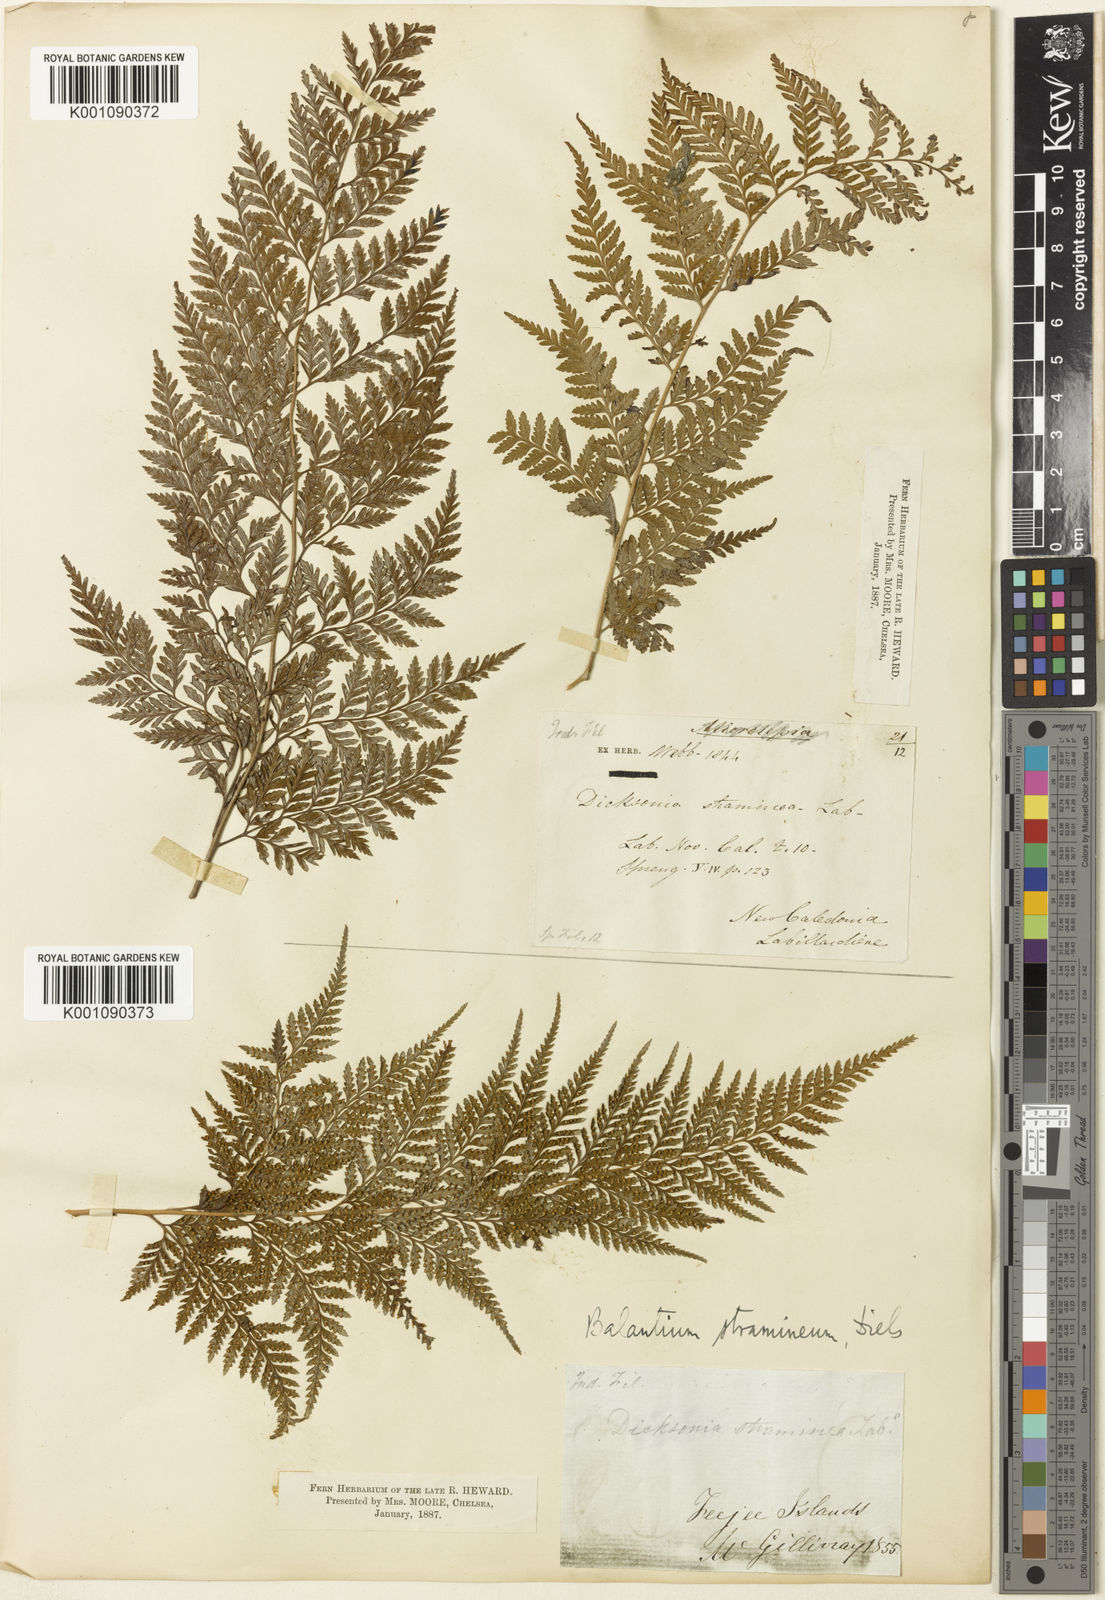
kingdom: Plantae
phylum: Tracheophyta
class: Polypodiopsida
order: Cyatheales
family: Dicksoniaceae
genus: Calochlaena
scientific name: Calochlaena straminea
